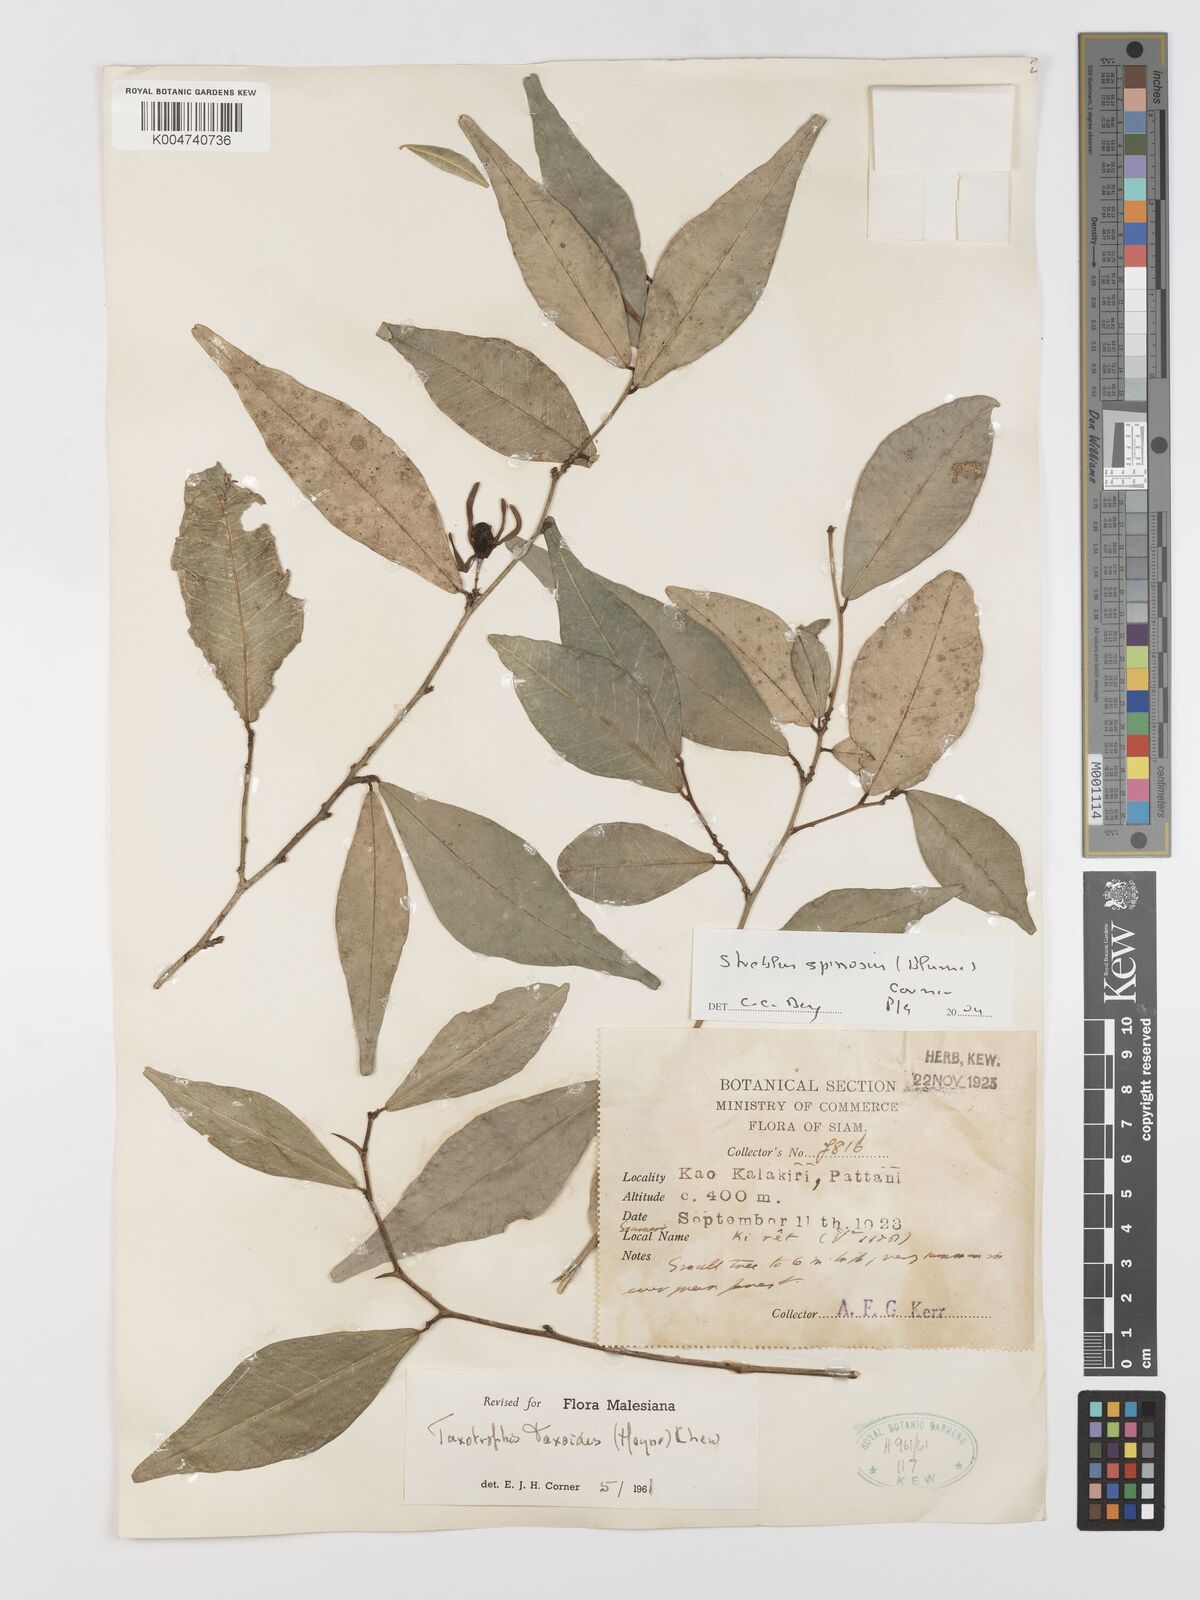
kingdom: Plantae
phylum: Tracheophyta
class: Magnoliopsida
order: Rosales
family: Moraceae
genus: Taxotrophis
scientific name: Taxotrophis spinosa
